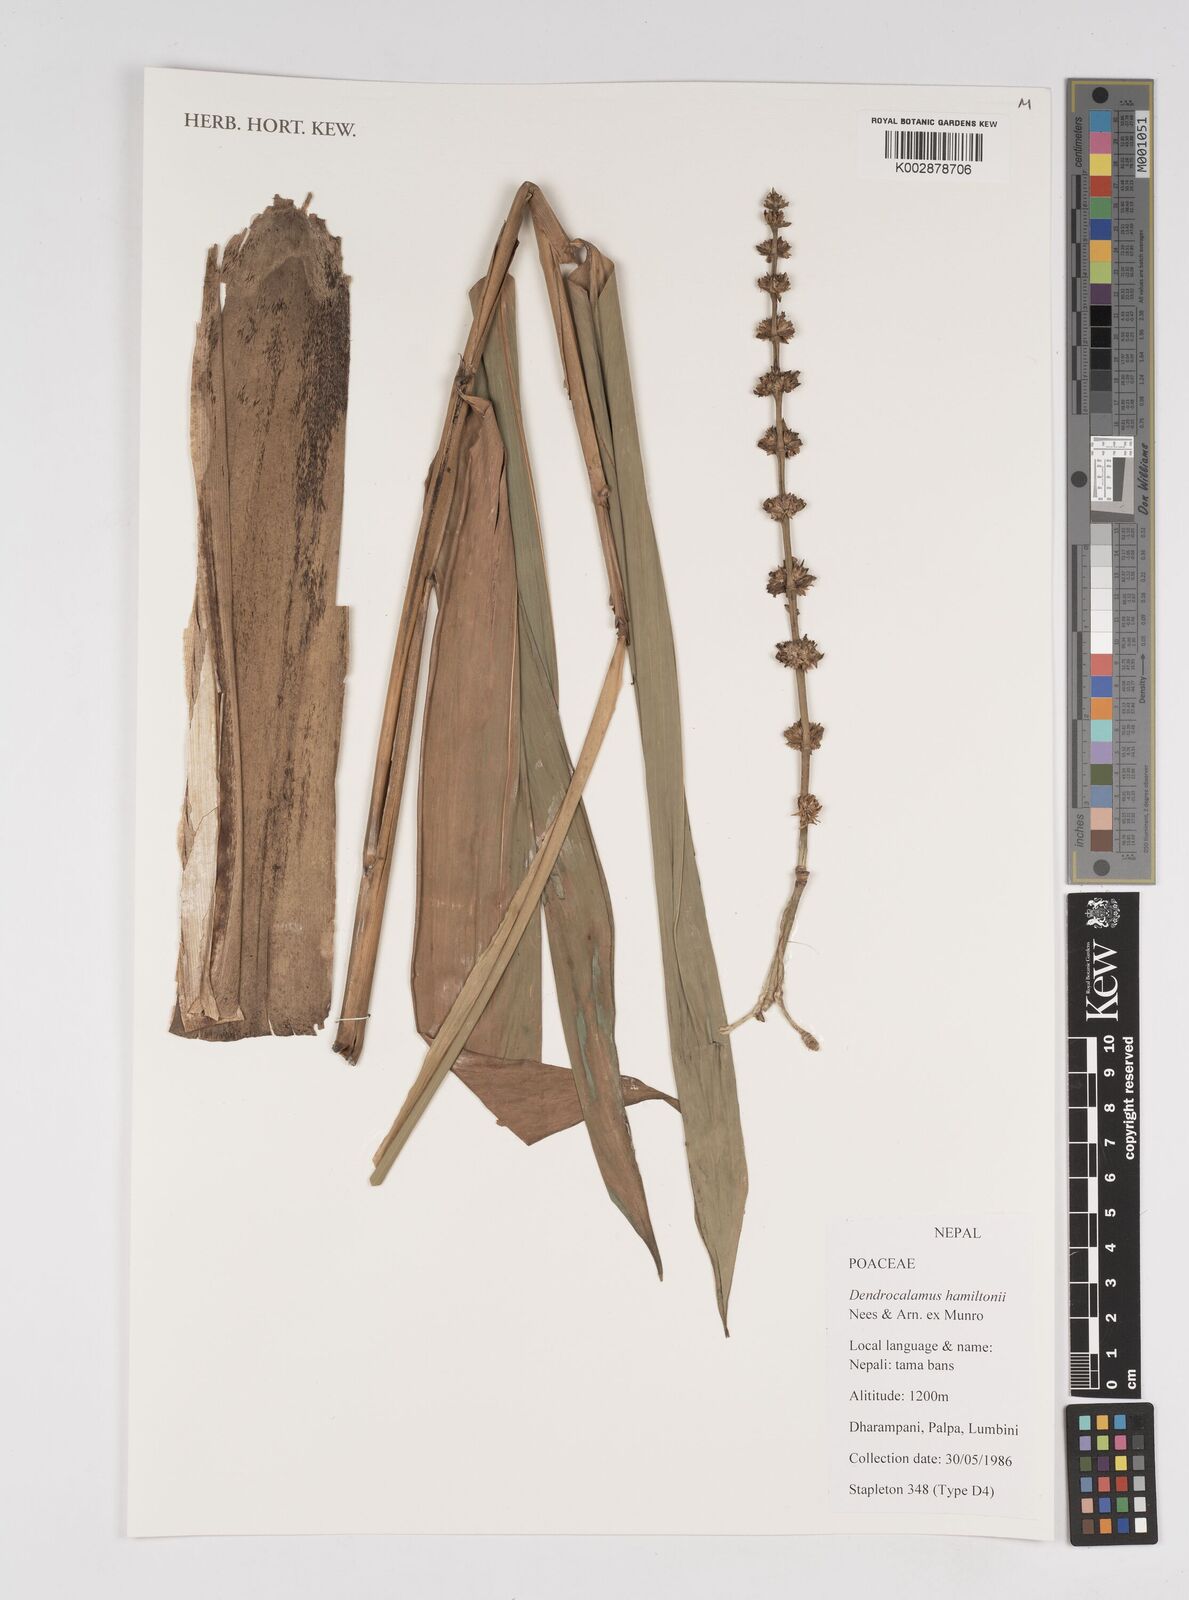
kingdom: Plantae
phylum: Tracheophyta
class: Liliopsida
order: Poales
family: Poaceae
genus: Dendrocalamus
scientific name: Dendrocalamus hamiltonii
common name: Tama bamboo
